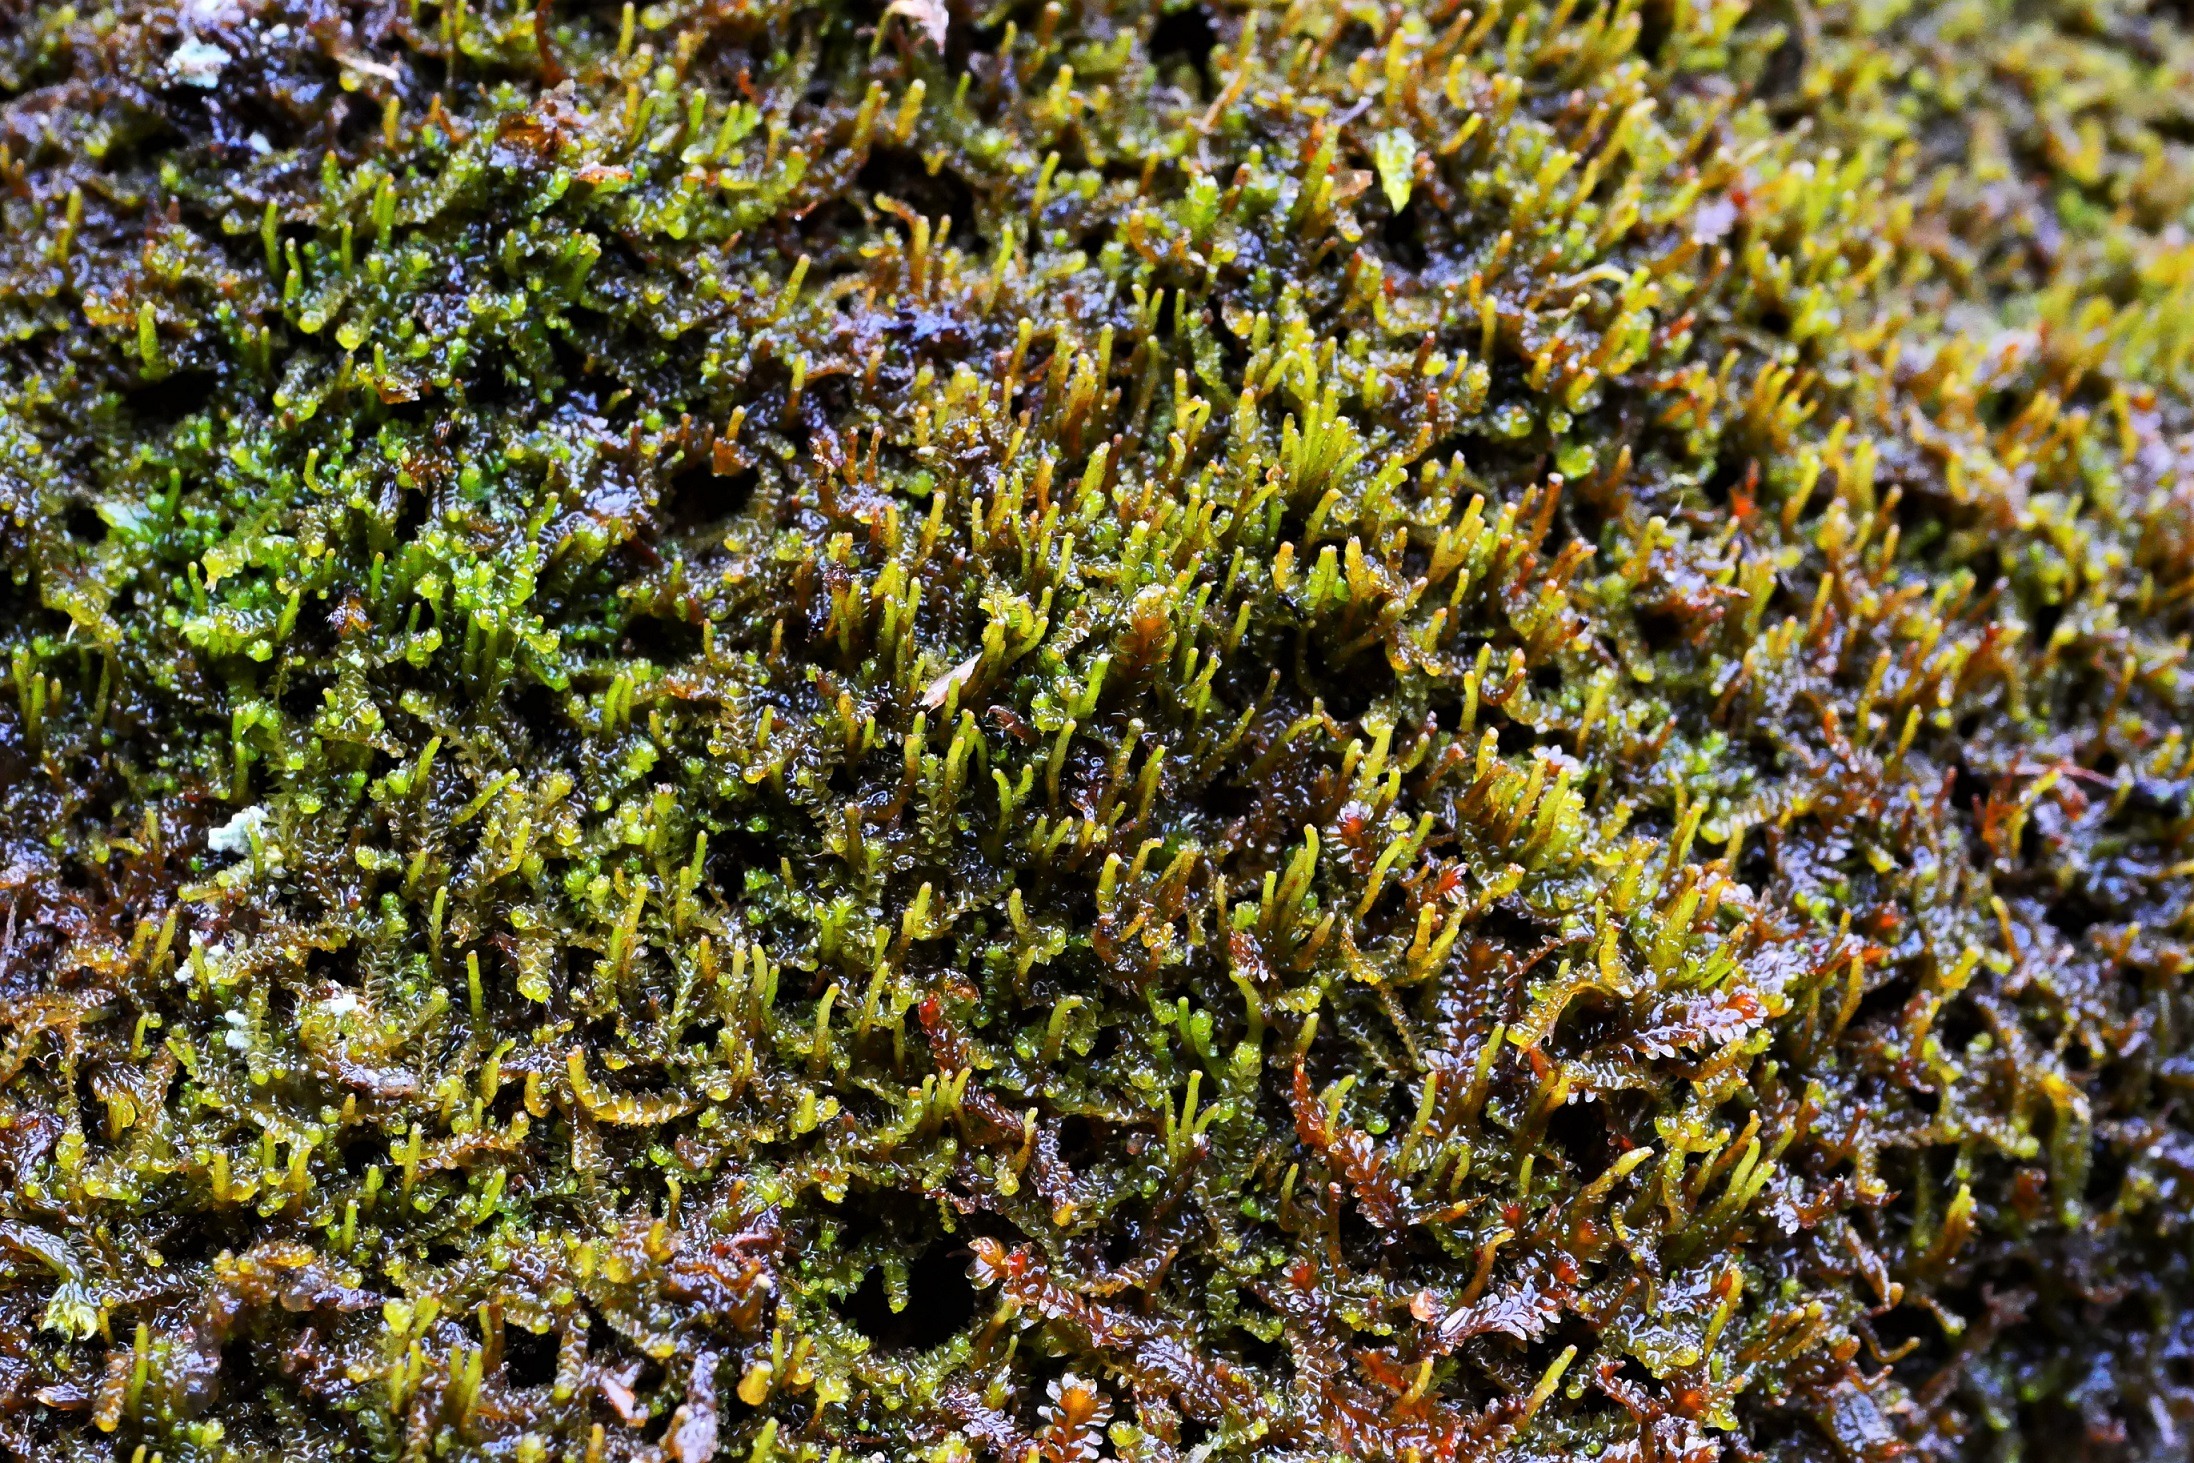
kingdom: Plantae
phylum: Marchantiophyta
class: Jungermanniopsida
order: Jungermanniales
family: Anastrophyllaceae
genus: Neoorthocaulis
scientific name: Neoorthocaulis attenuatus
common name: Tynd flerfligmos
